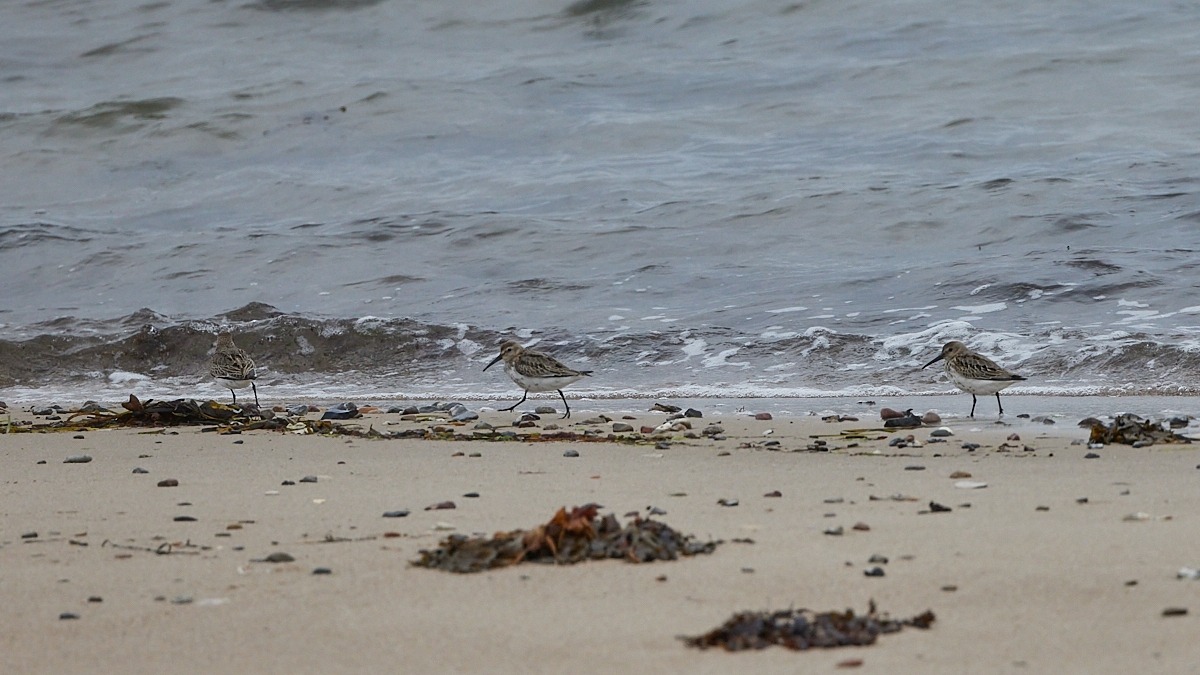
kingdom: Animalia
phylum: Chordata
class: Aves
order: Charadriiformes
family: Scolopacidae
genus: Calidris
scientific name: Calidris alpina
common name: Almindelig ryle
